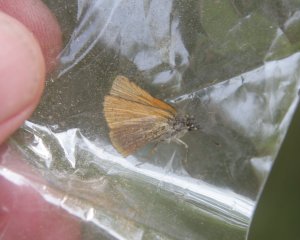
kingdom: Animalia
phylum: Arthropoda
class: Insecta
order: Lepidoptera
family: Hesperiidae
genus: Thymelicus
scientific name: Thymelicus lineola
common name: European Skipper
